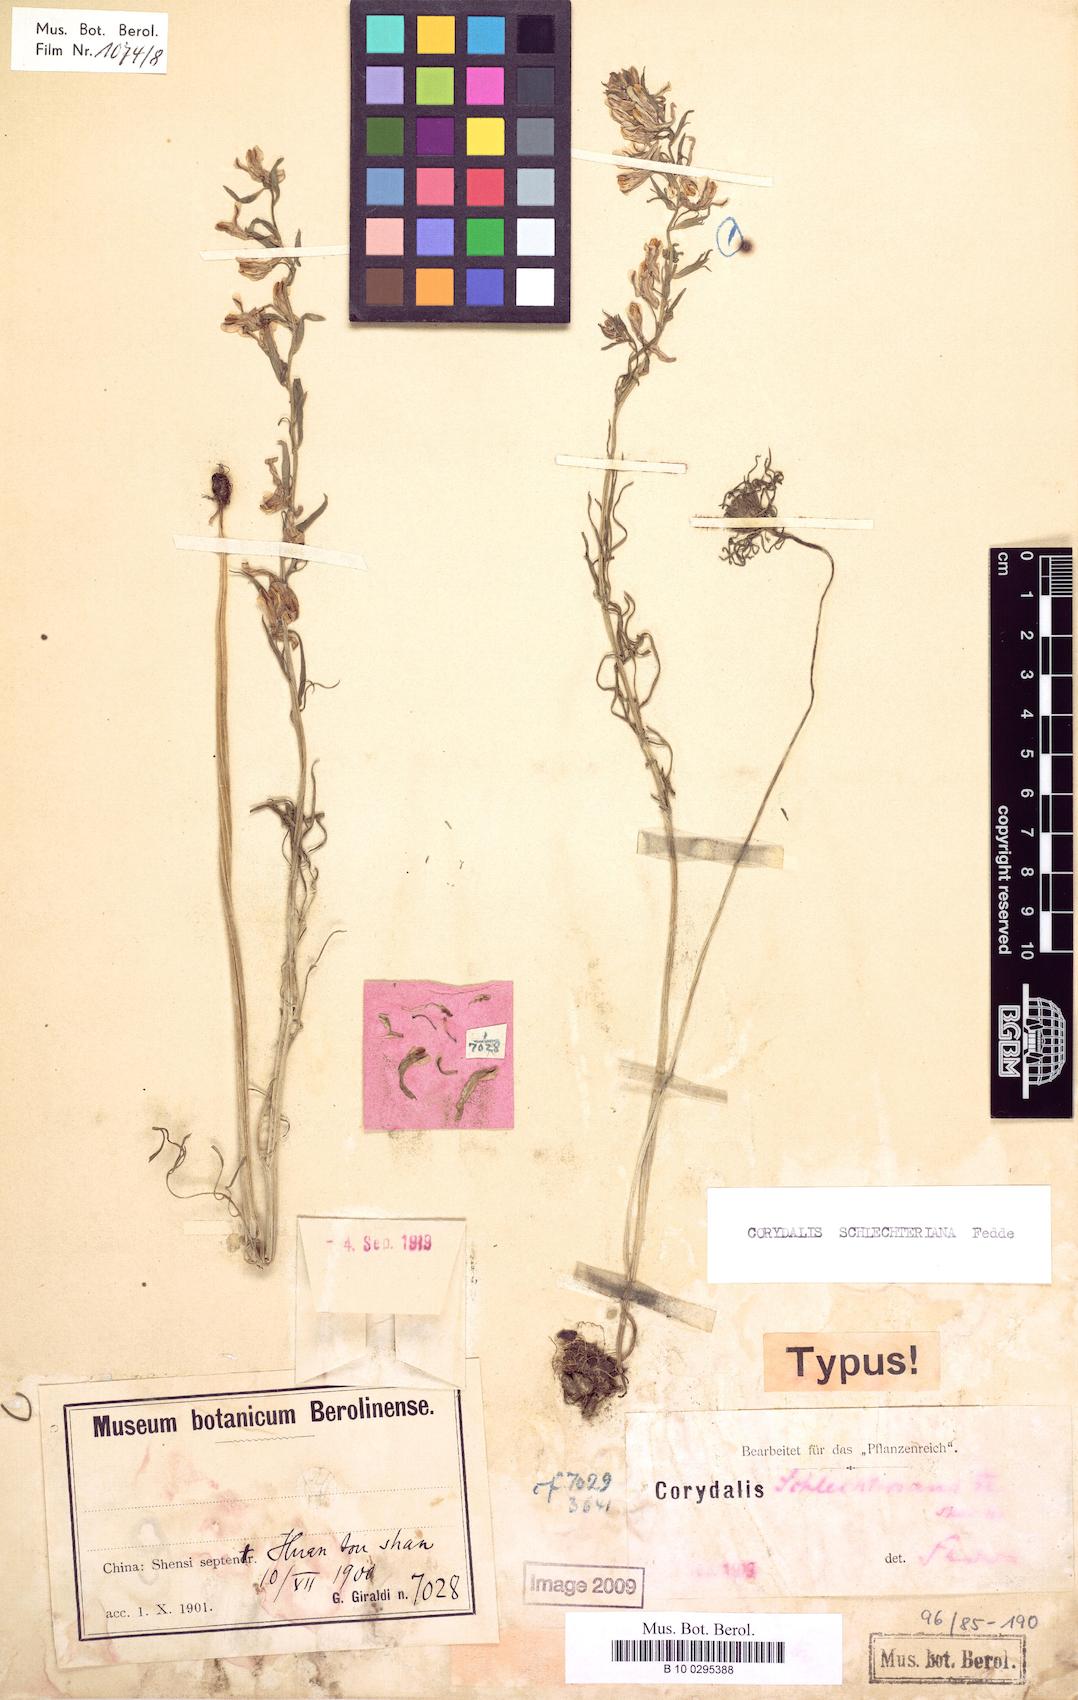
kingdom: Plantae
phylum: Tracheophyta
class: Magnoliopsida
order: Ranunculales
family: Papaveraceae
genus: Corydalis
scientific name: Corydalis linarioides
